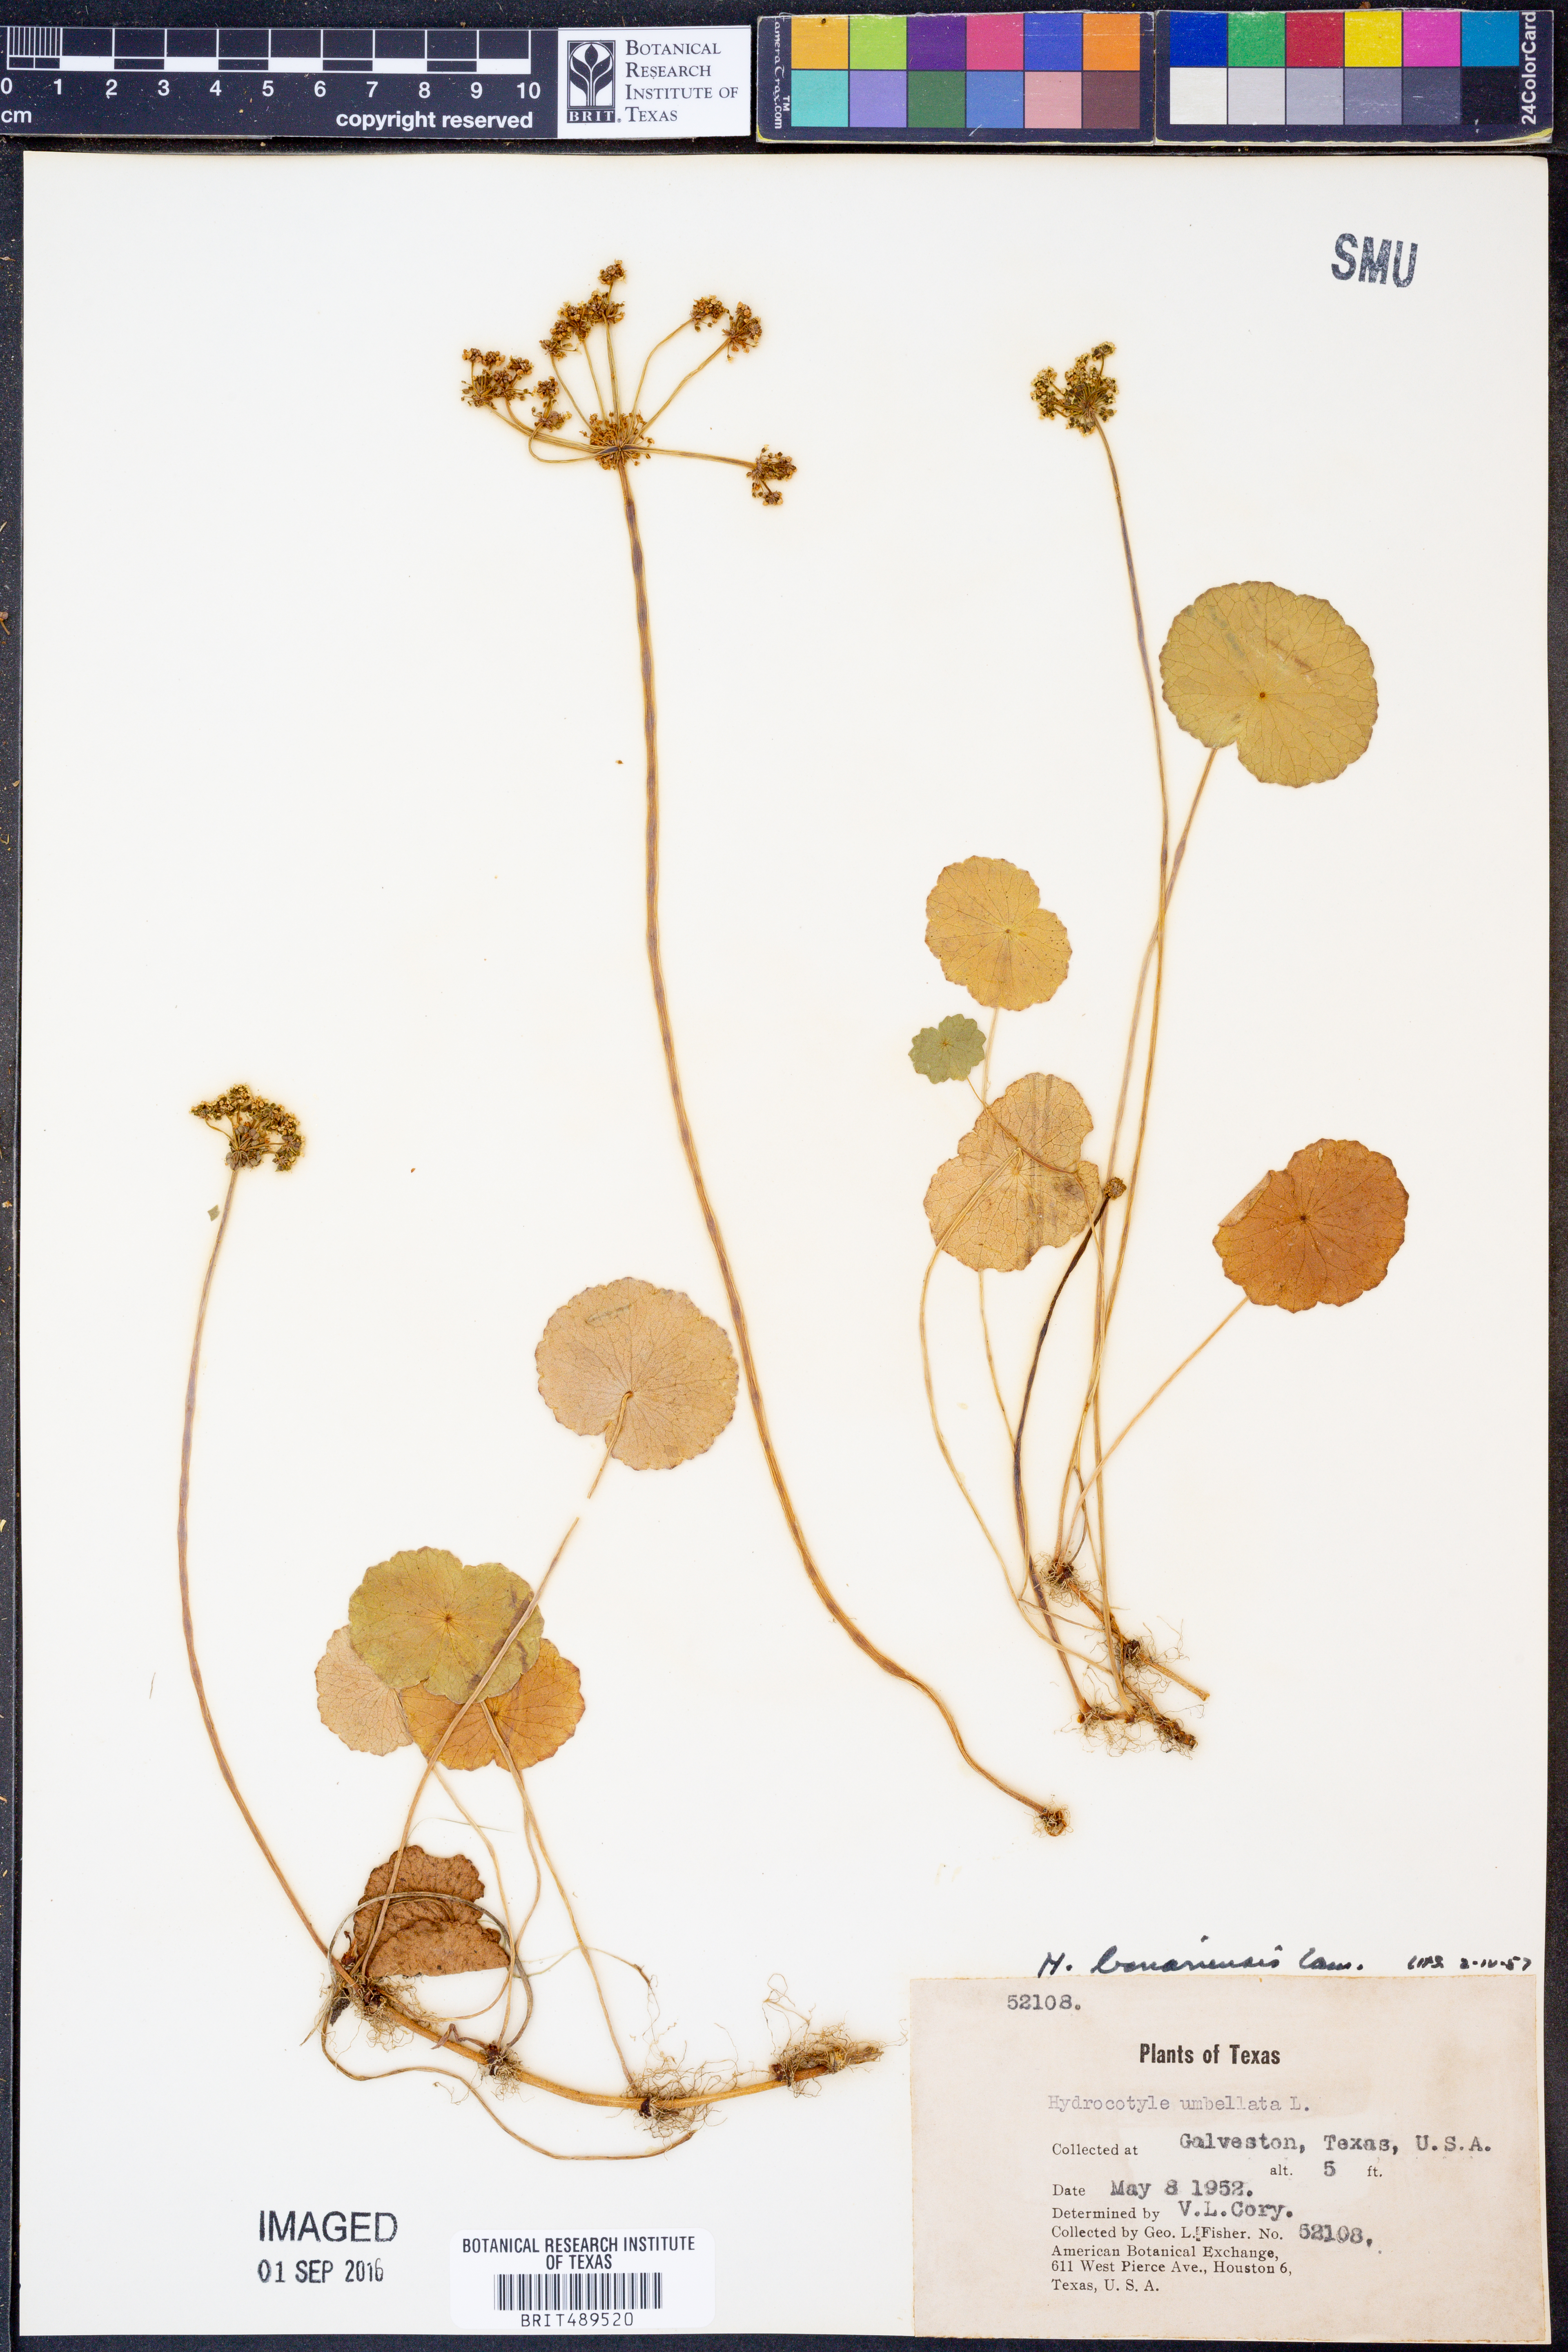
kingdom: Plantae
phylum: Tracheophyta
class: Magnoliopsida
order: Apiales
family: Araliaceae
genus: Hydrocotyle
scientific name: Hydrocotyle bonariensis
